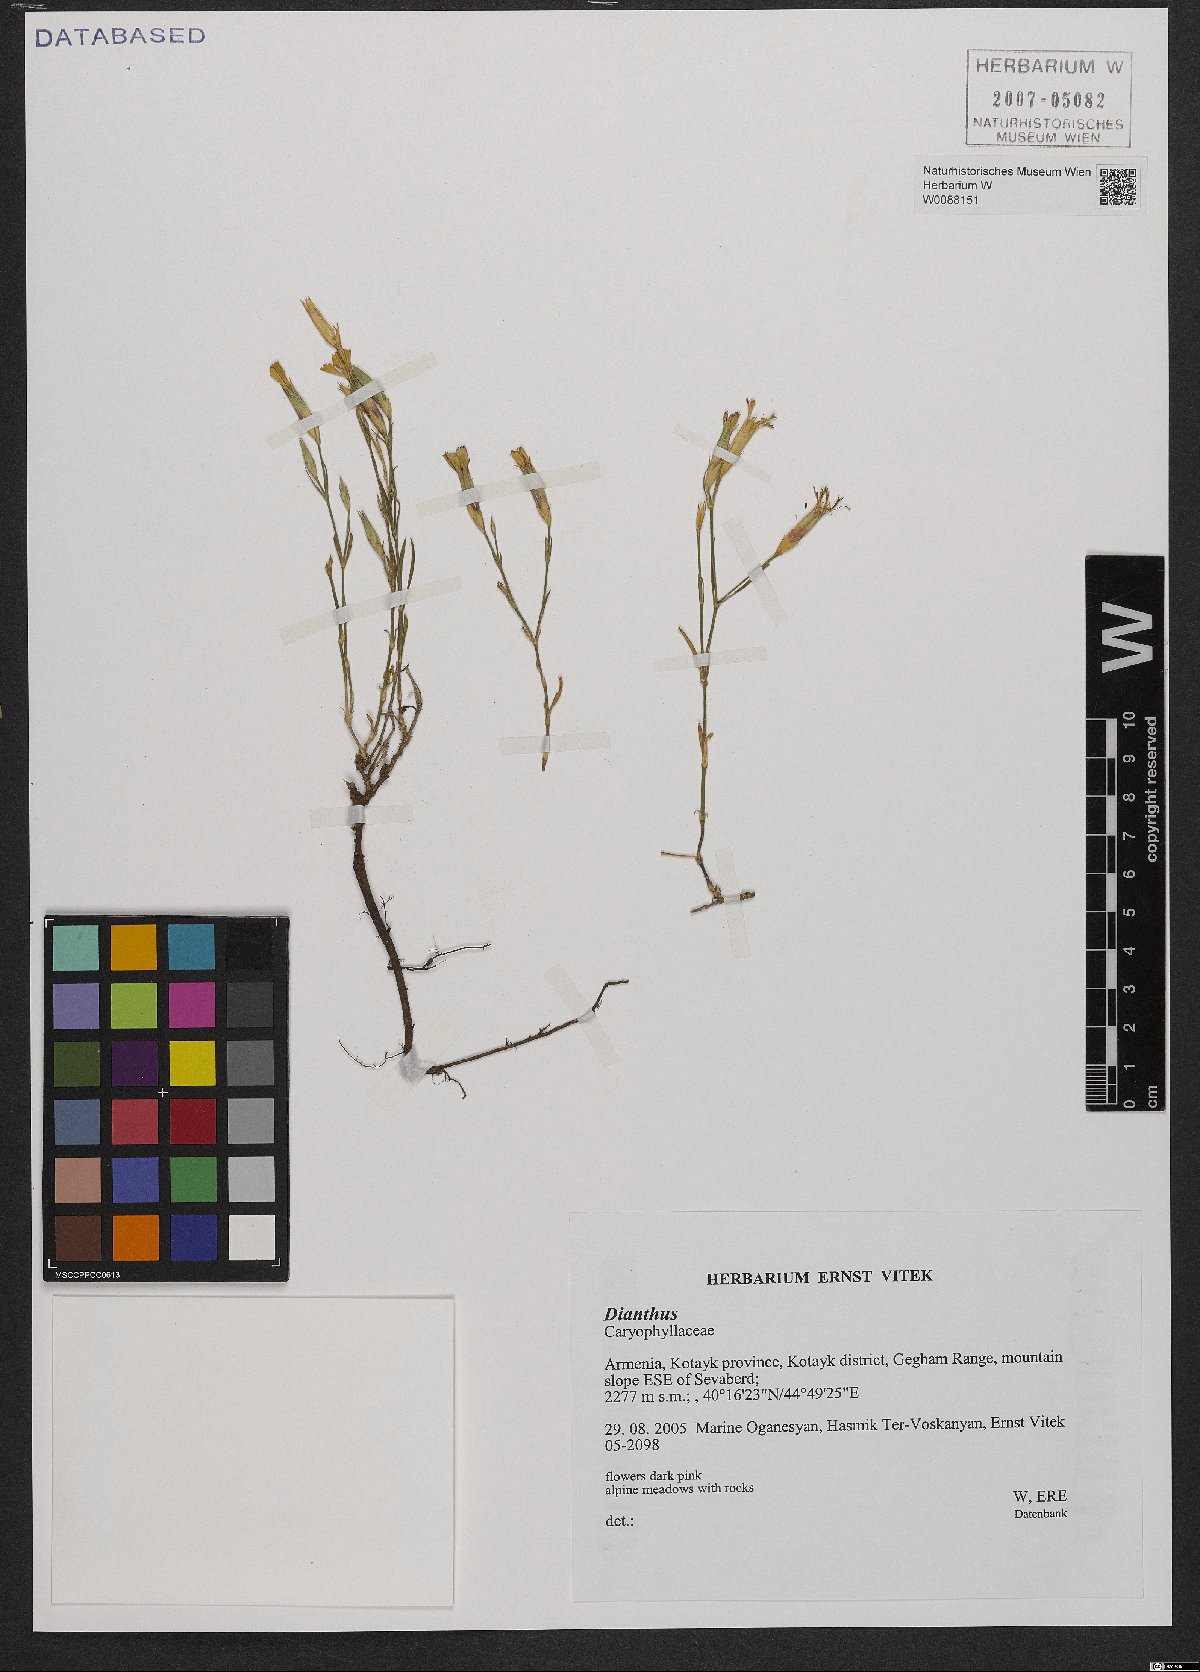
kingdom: Plantae
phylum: Tracheophyta
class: Magnoliopsida
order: Caryophyllales
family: Caryophyllaceae
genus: Dianthus
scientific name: Dianthus
